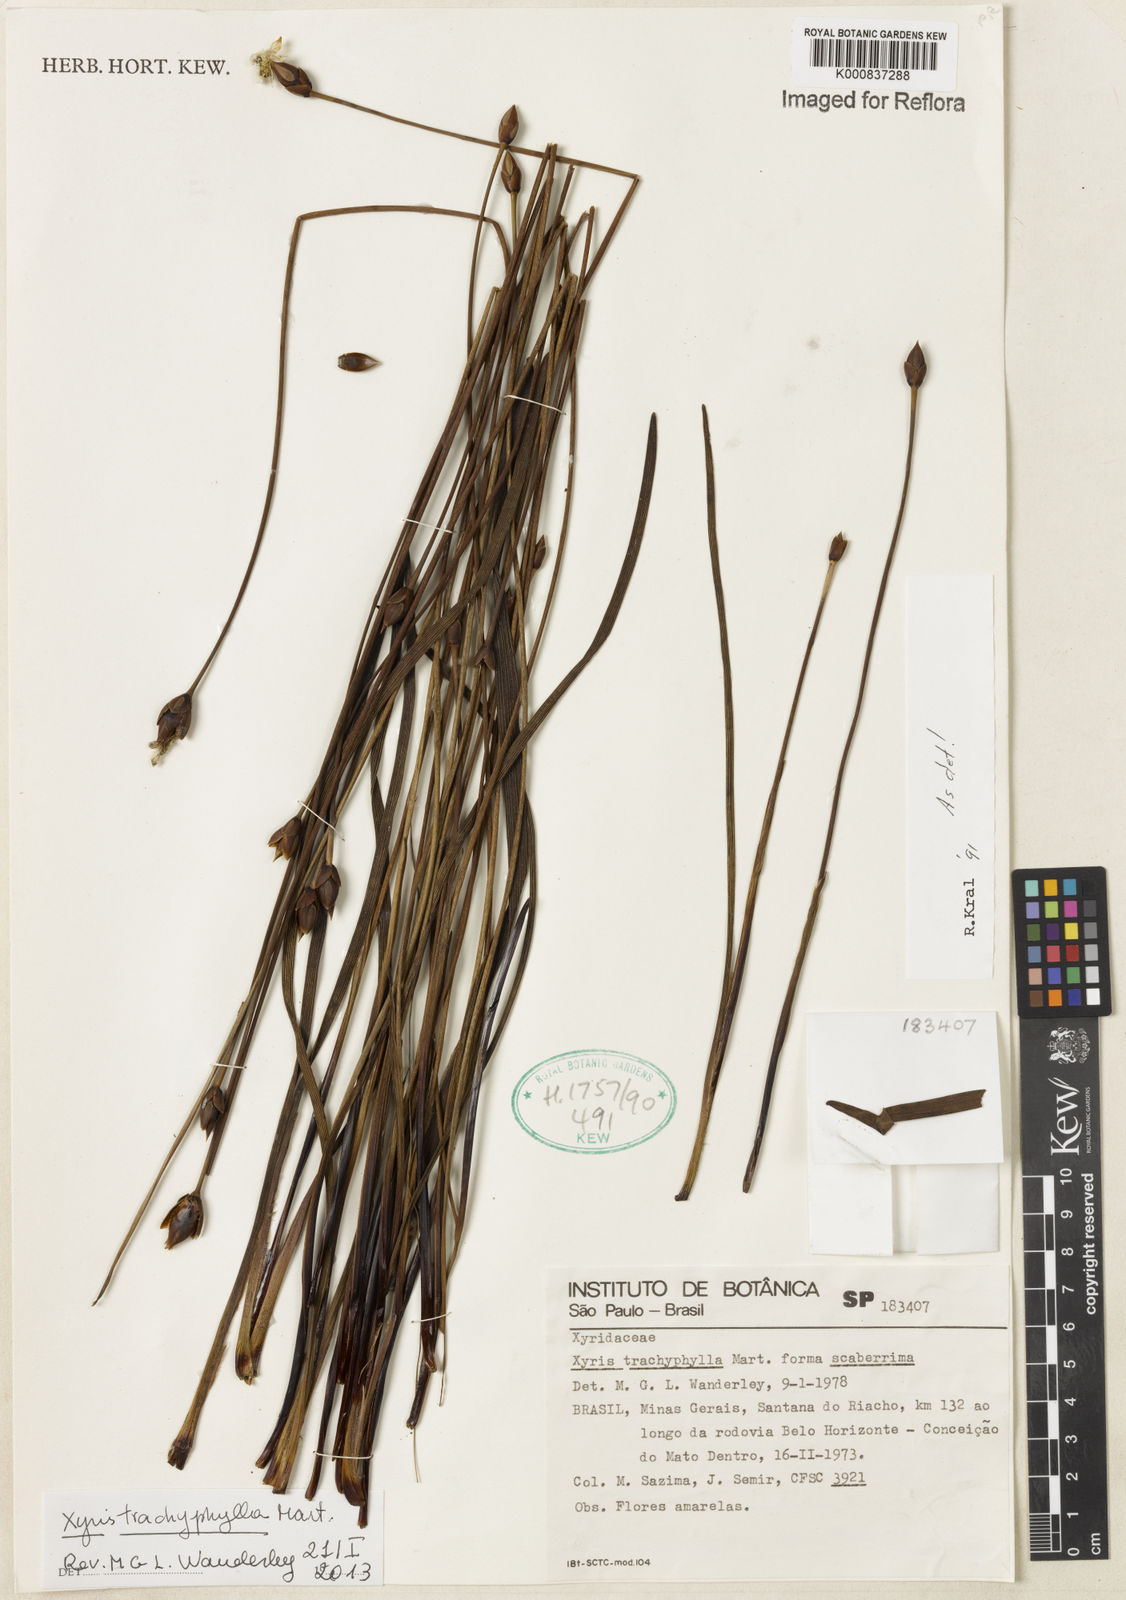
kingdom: Plantae
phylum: Tracheophyta
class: Liliopsida
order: Poales
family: Xyridaceae
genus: Xyris
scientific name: Xyris trachyphylla
